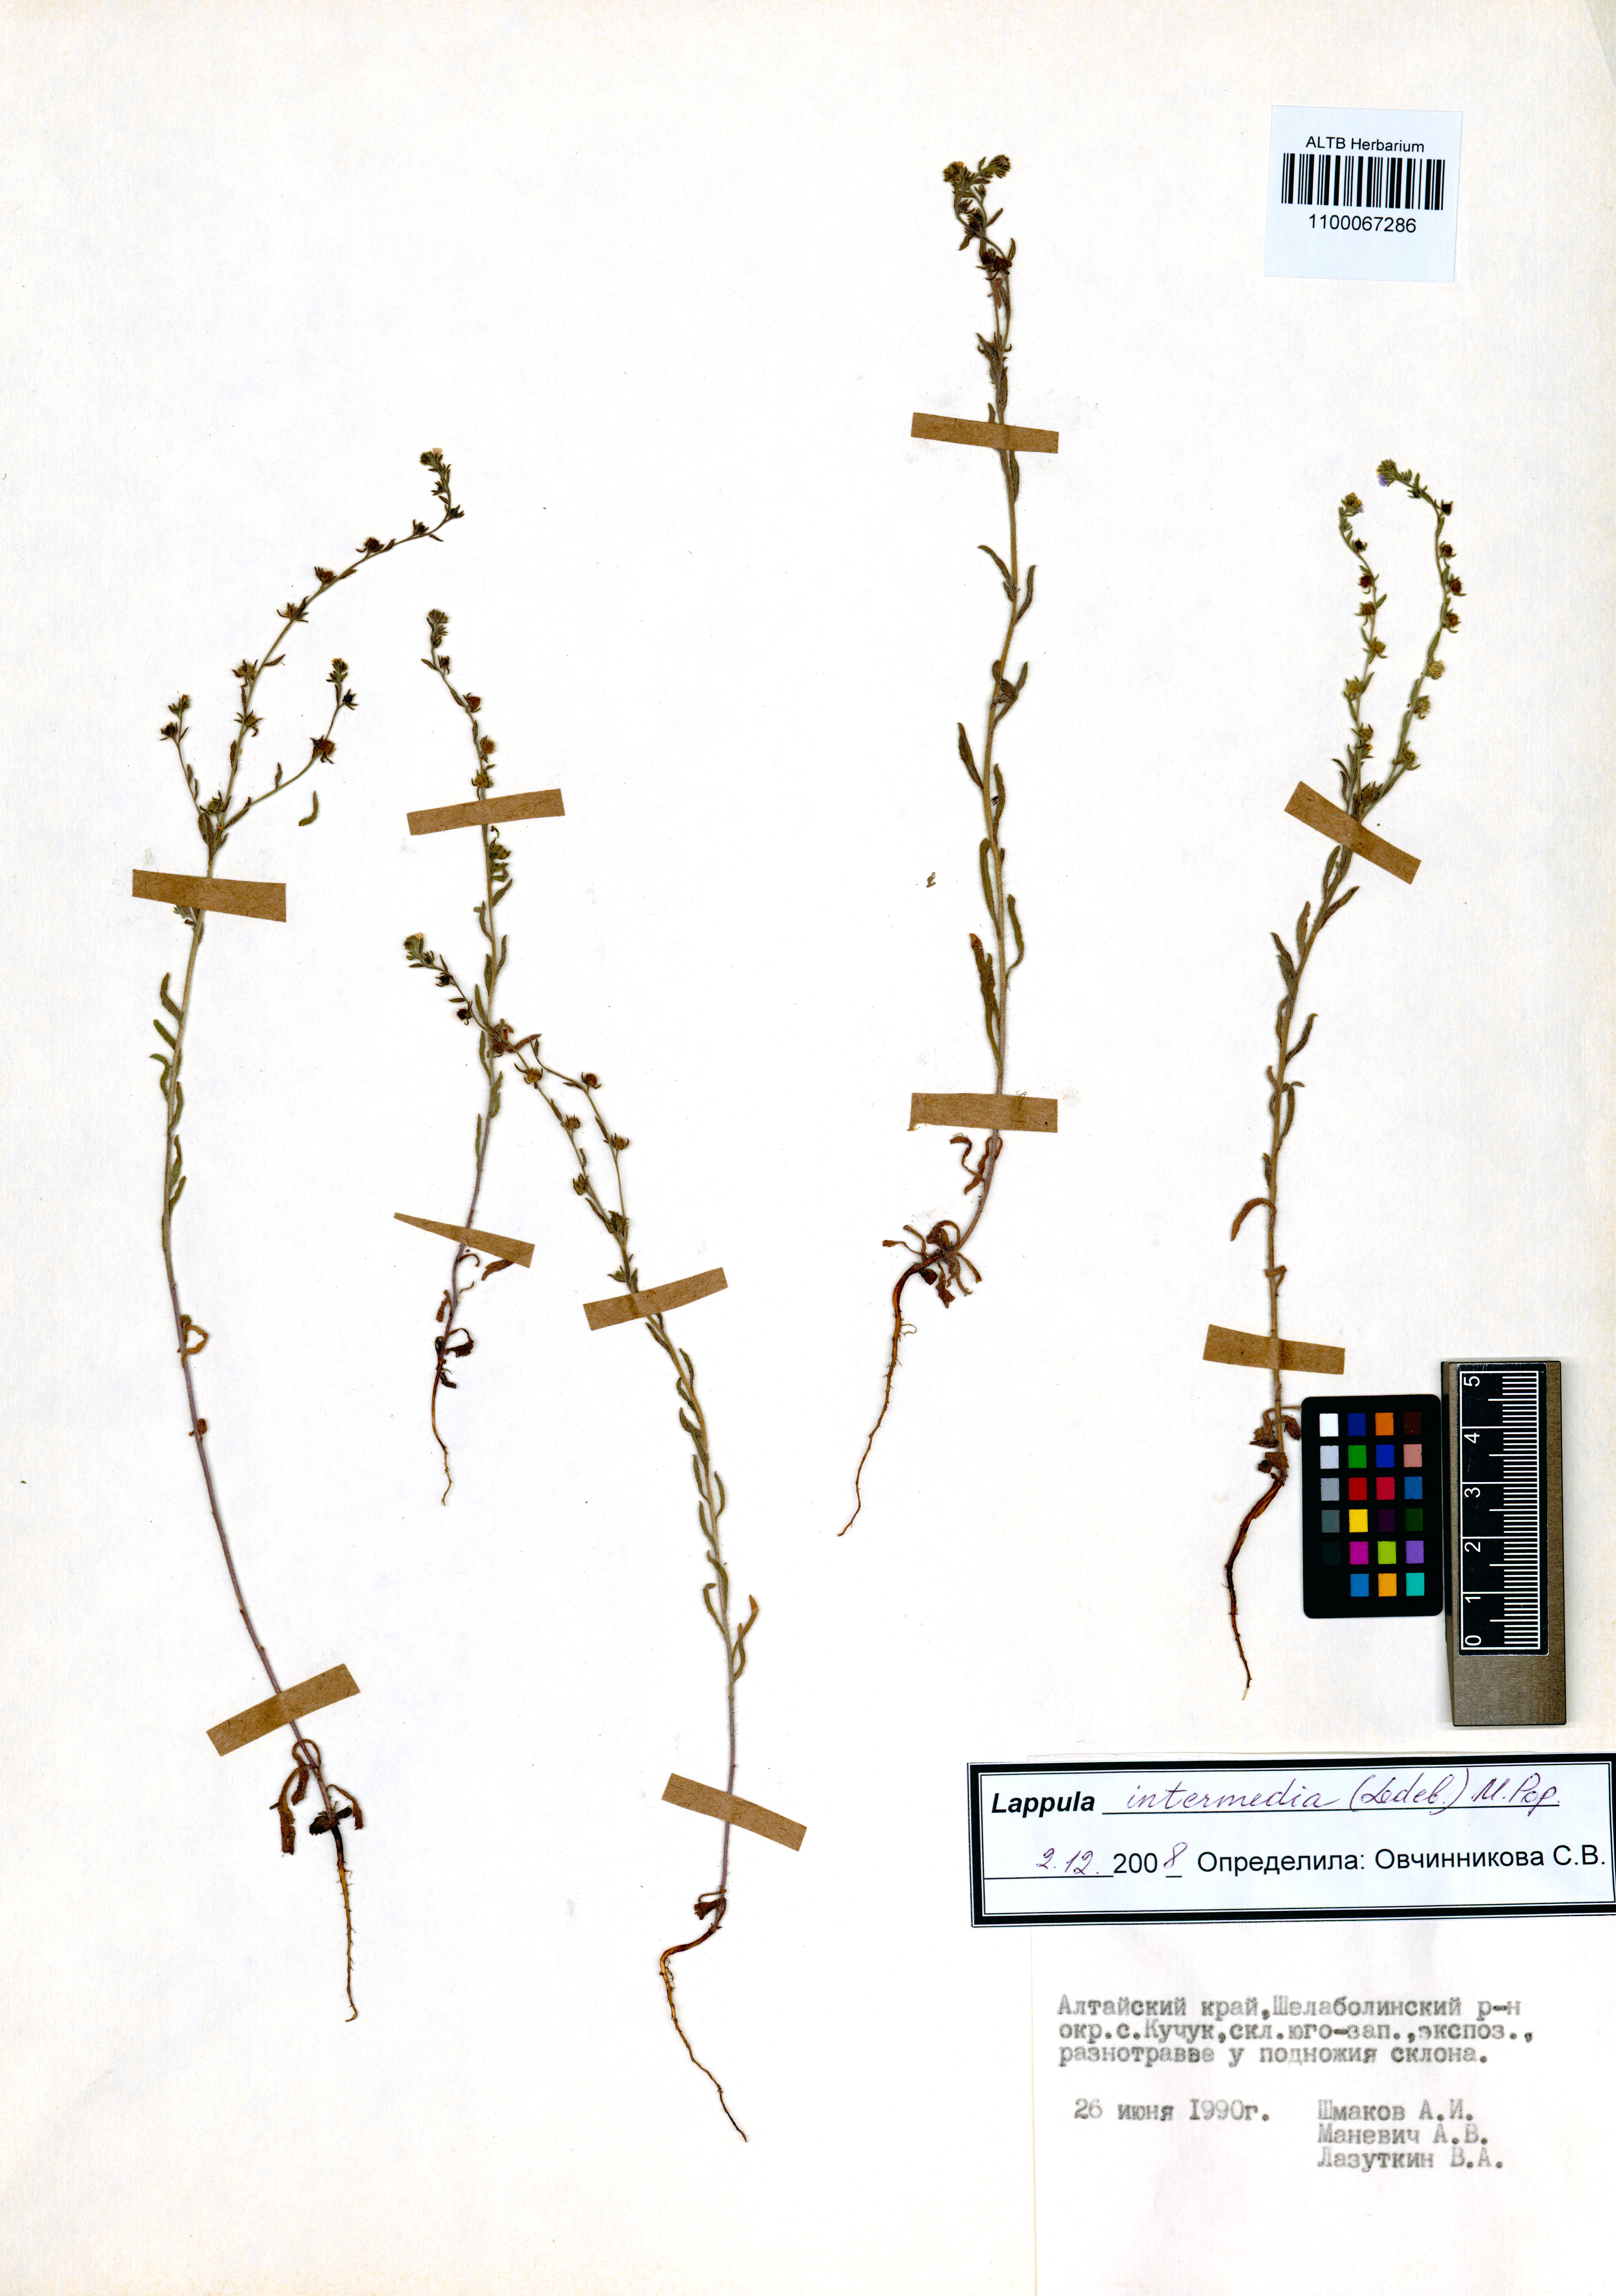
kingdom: Plantae
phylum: Tracheophyta
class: Magnoliopsida
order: Boraginales
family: Boraginaceae
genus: Lappula
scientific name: Lappula intermedia
